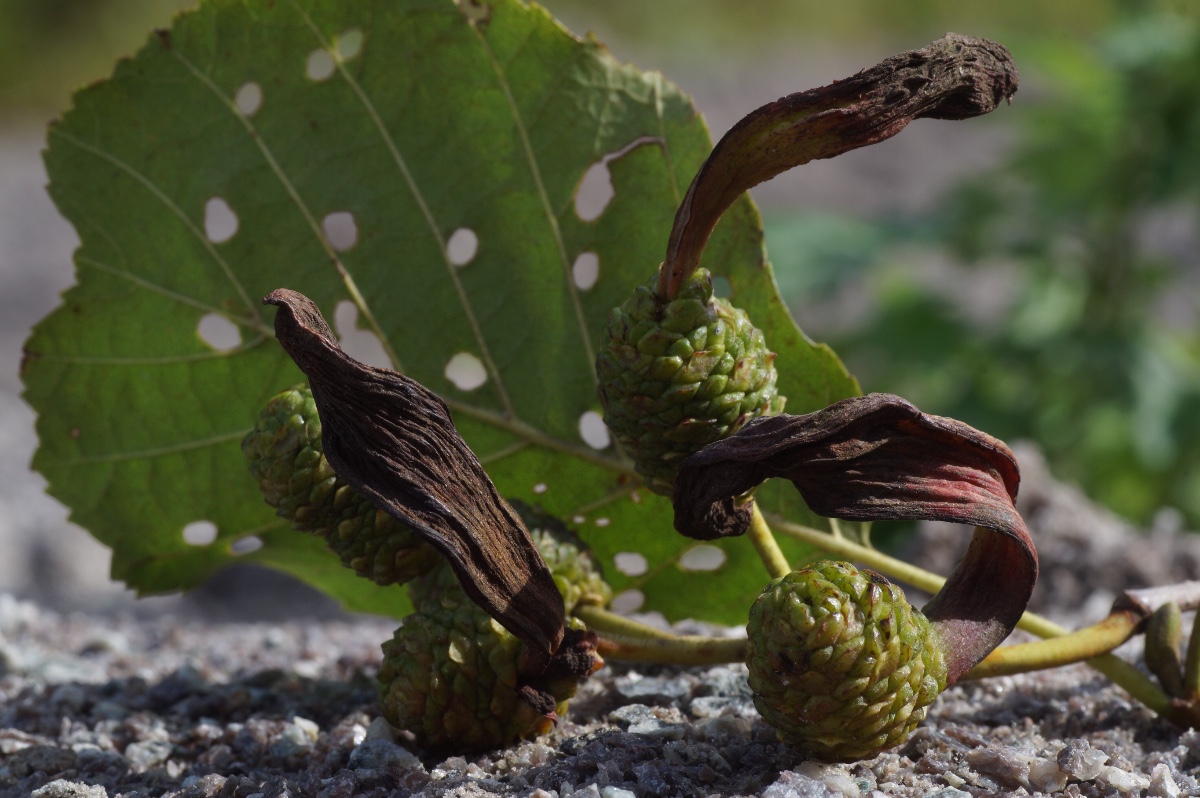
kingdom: Fungi
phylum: Ascomycota
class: Taphrinomycetes
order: Taphrinales
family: Taphrinaceae
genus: Taphrina
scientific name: Taphrina alni
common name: Alder tongue
